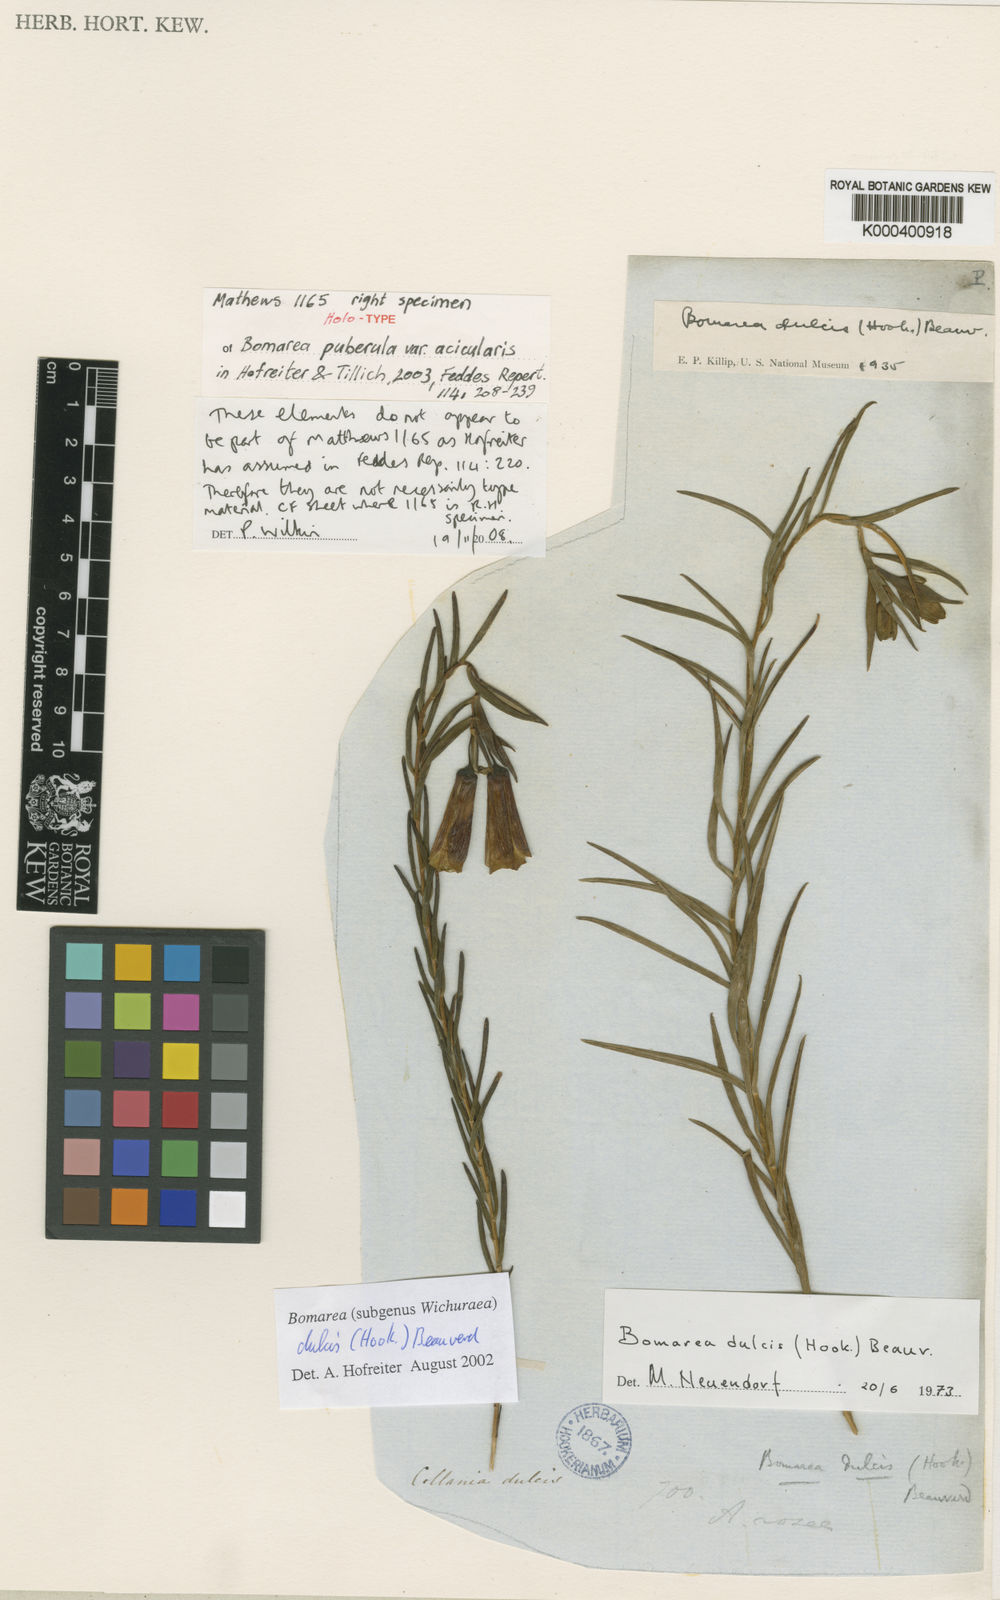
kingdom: Plantae
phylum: Tracheophyta
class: Liliopsida
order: Liliales
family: Alstroemeriaceae
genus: Bomarea
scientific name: Bomarea dulcis
